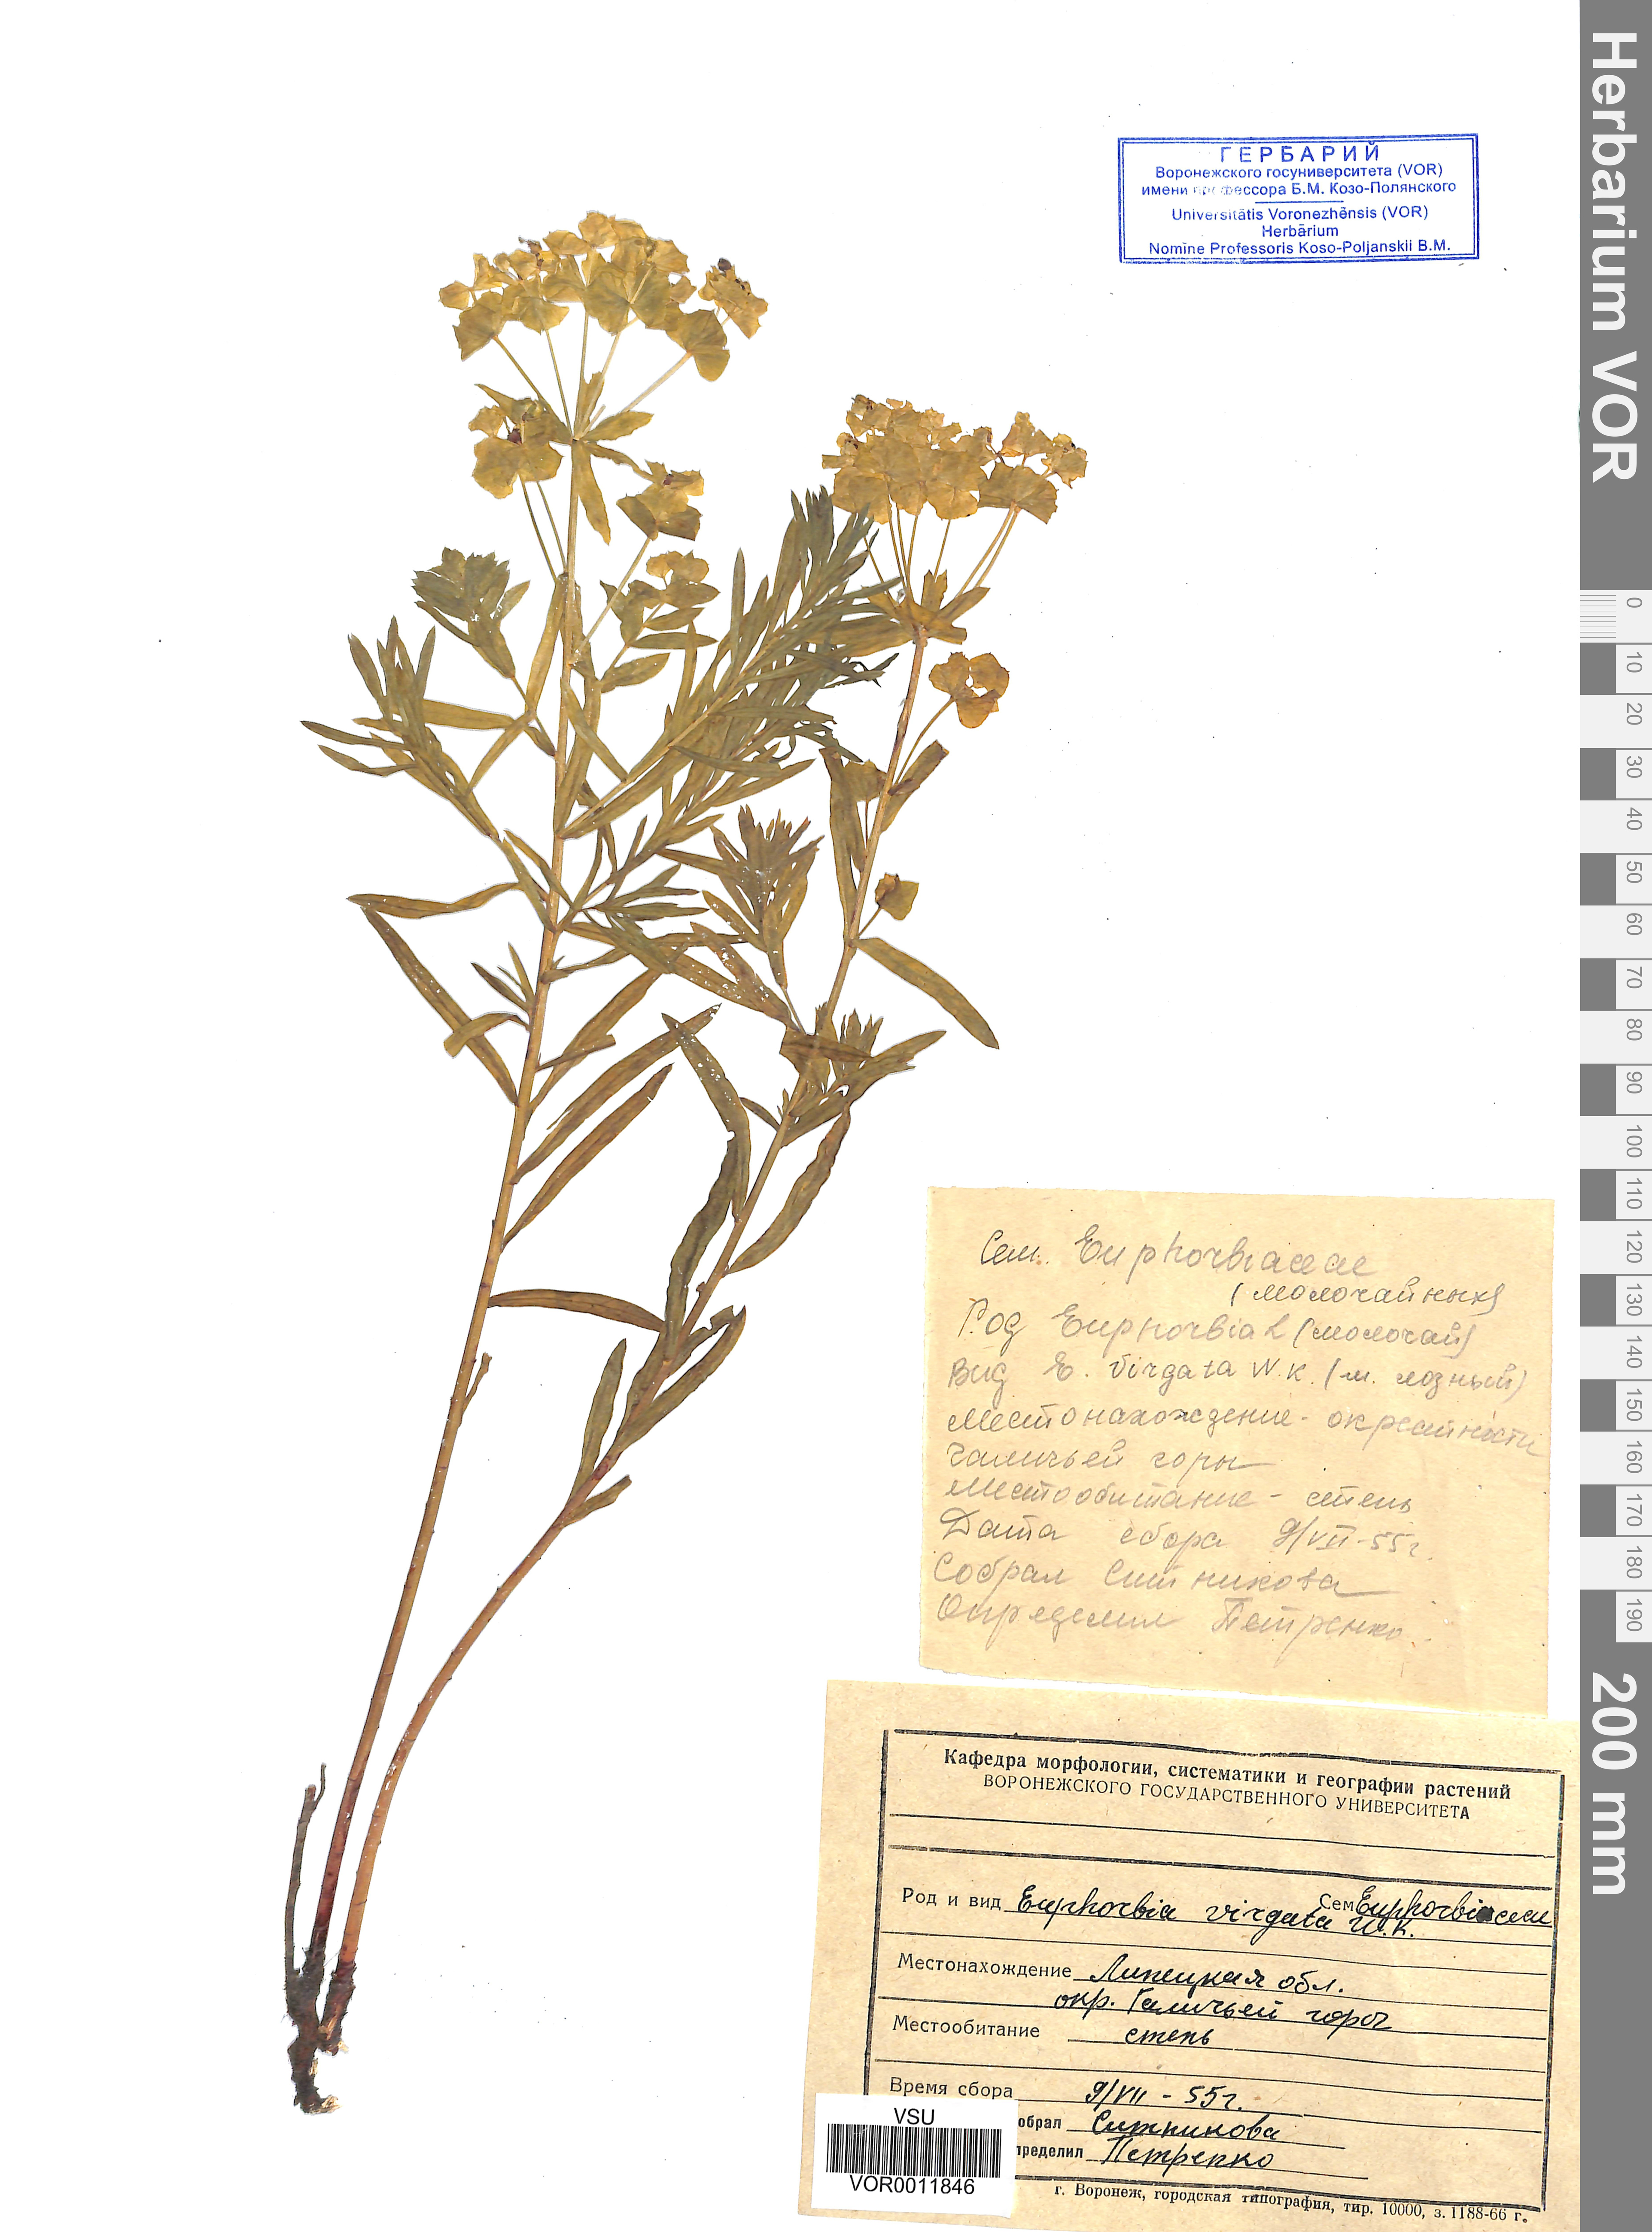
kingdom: Plantae
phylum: Tracheophyta
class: Magnoliopsida
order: Malpighiales
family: Euphorbiaceae
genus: Euphorbia
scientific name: Euphorbia virgata
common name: Leafy spurge
